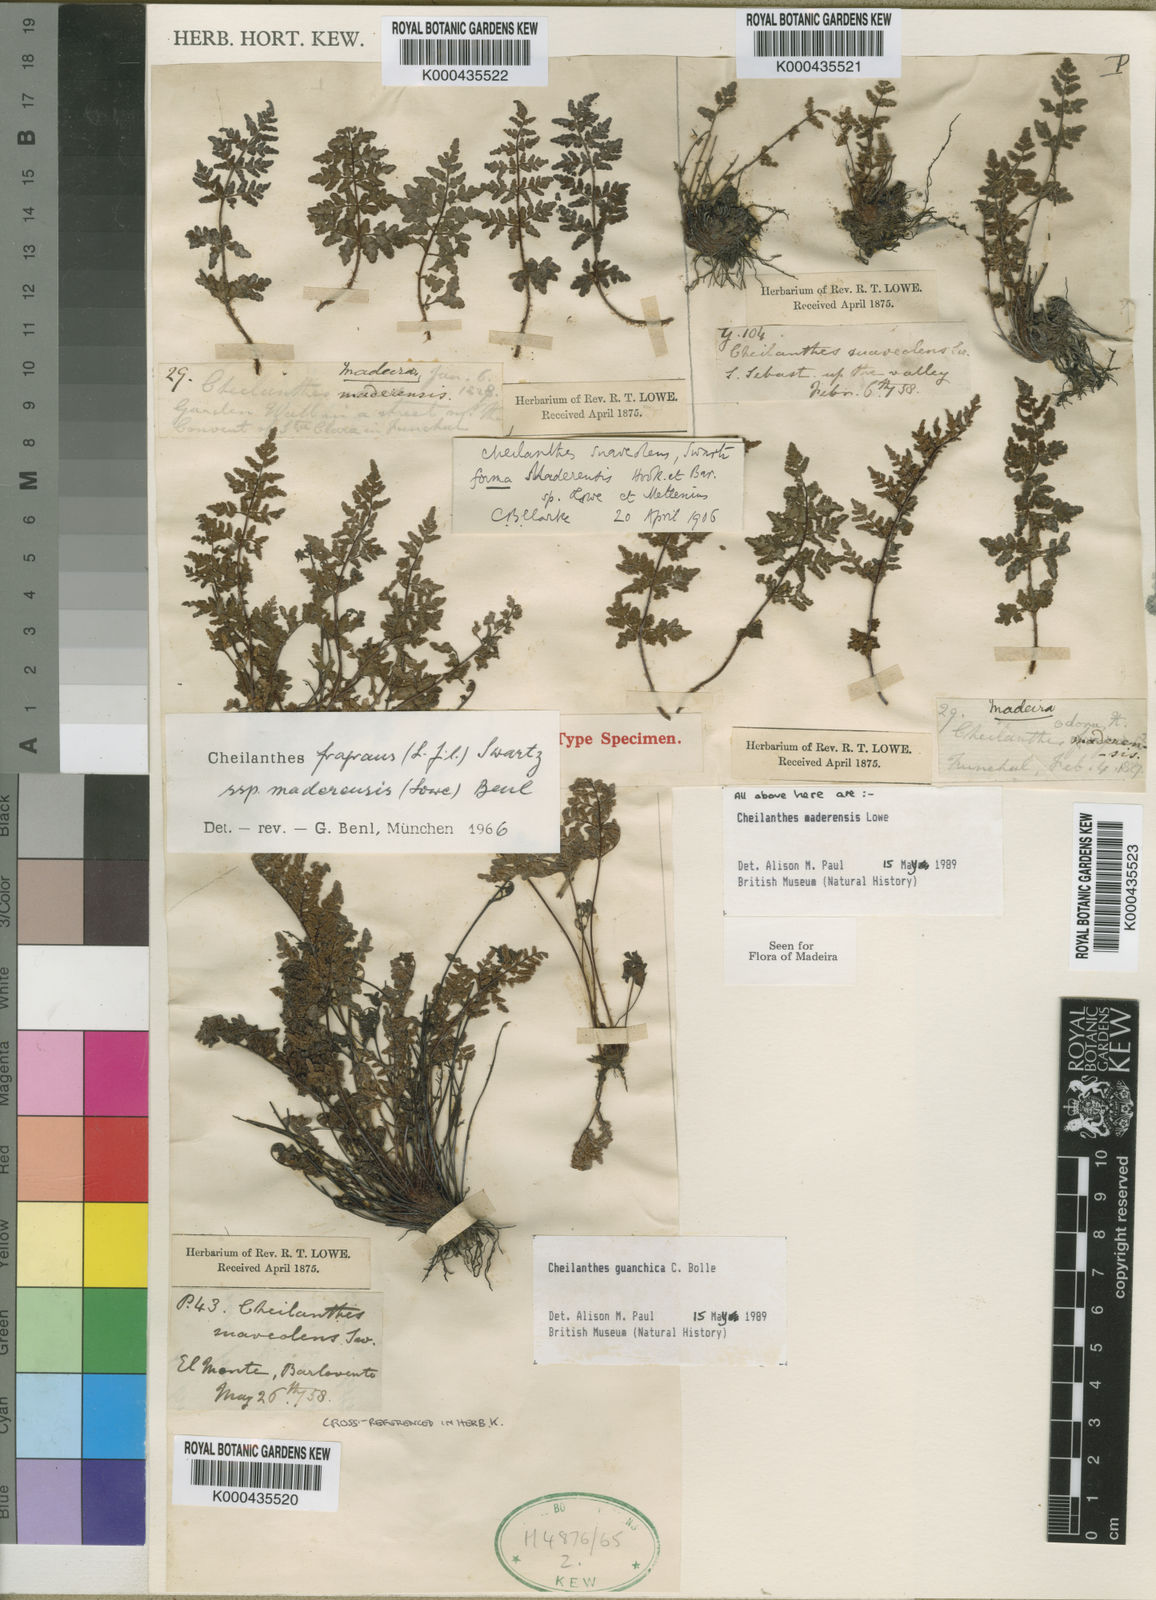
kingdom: Plantae
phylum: Tracheophyta
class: Polypodiopsida
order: Polypodiales
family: Pteridaceae
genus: Oeosporangium
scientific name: Oeosporangium pteridioides
